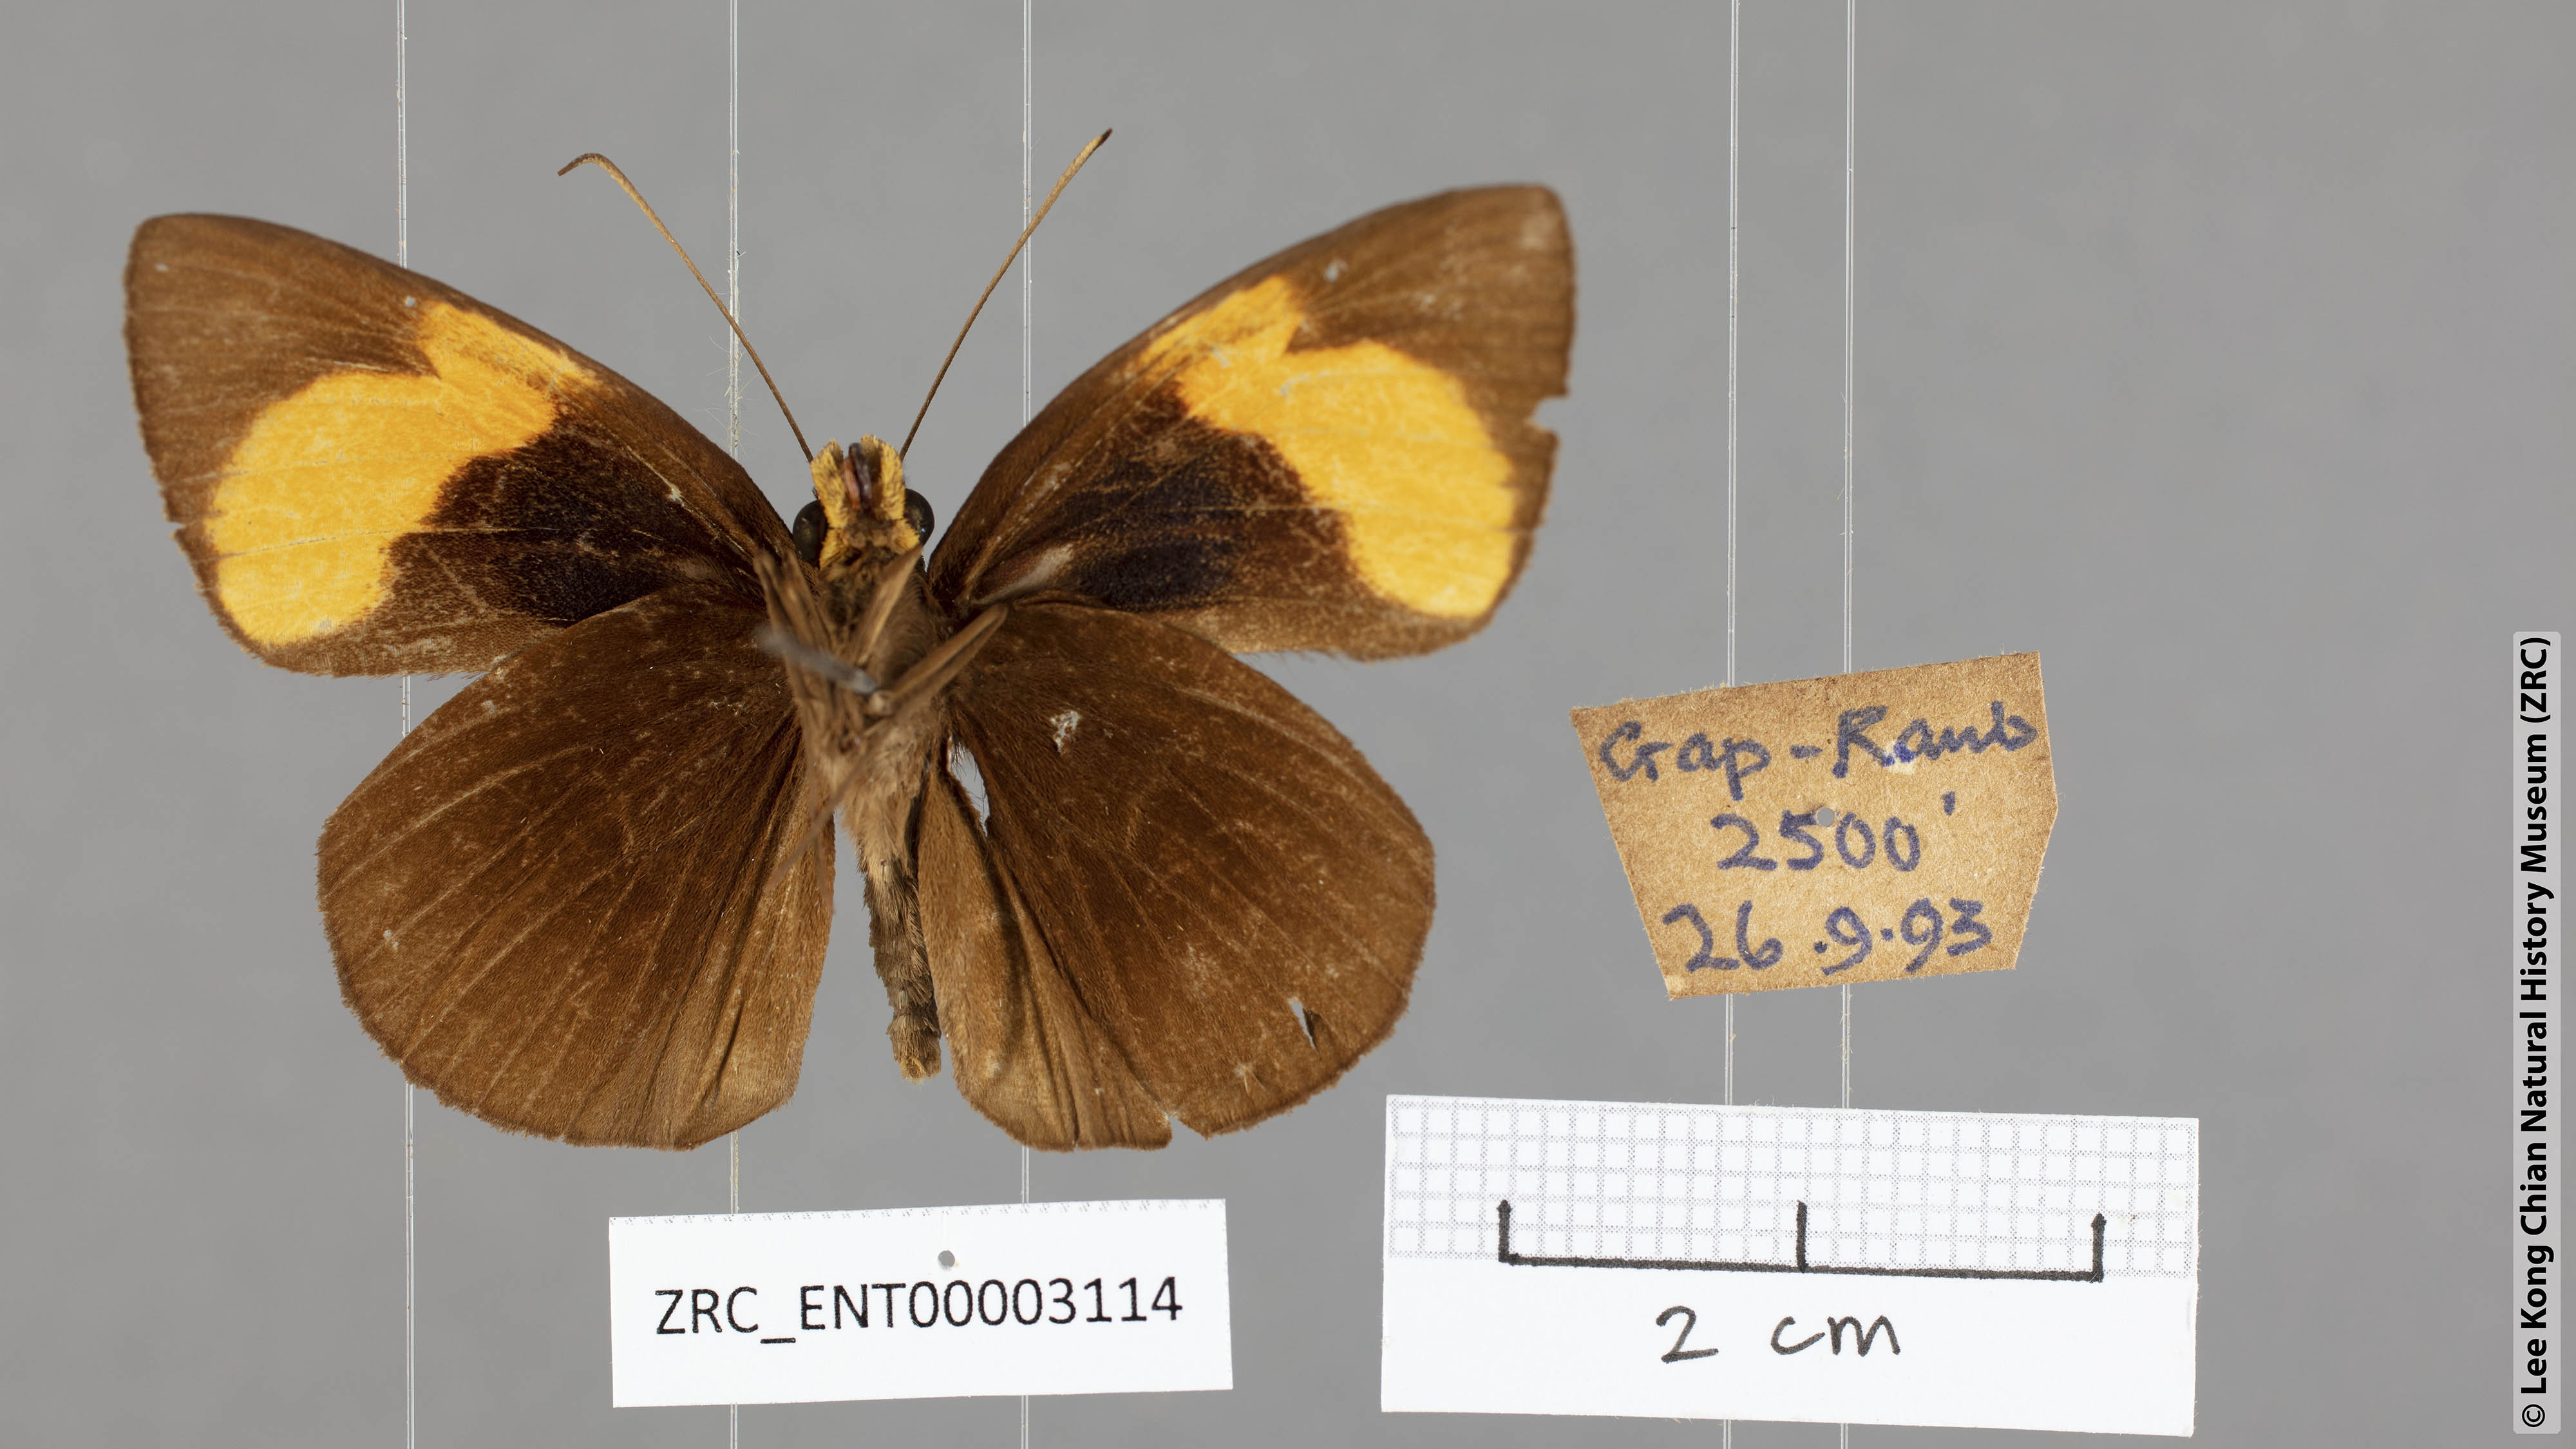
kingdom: Animalia
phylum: Arthropoda
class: Insecta
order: Lepidoptera
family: Hesperiidae
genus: Ancistroides
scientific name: Ancistroides armatus
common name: Red demon
